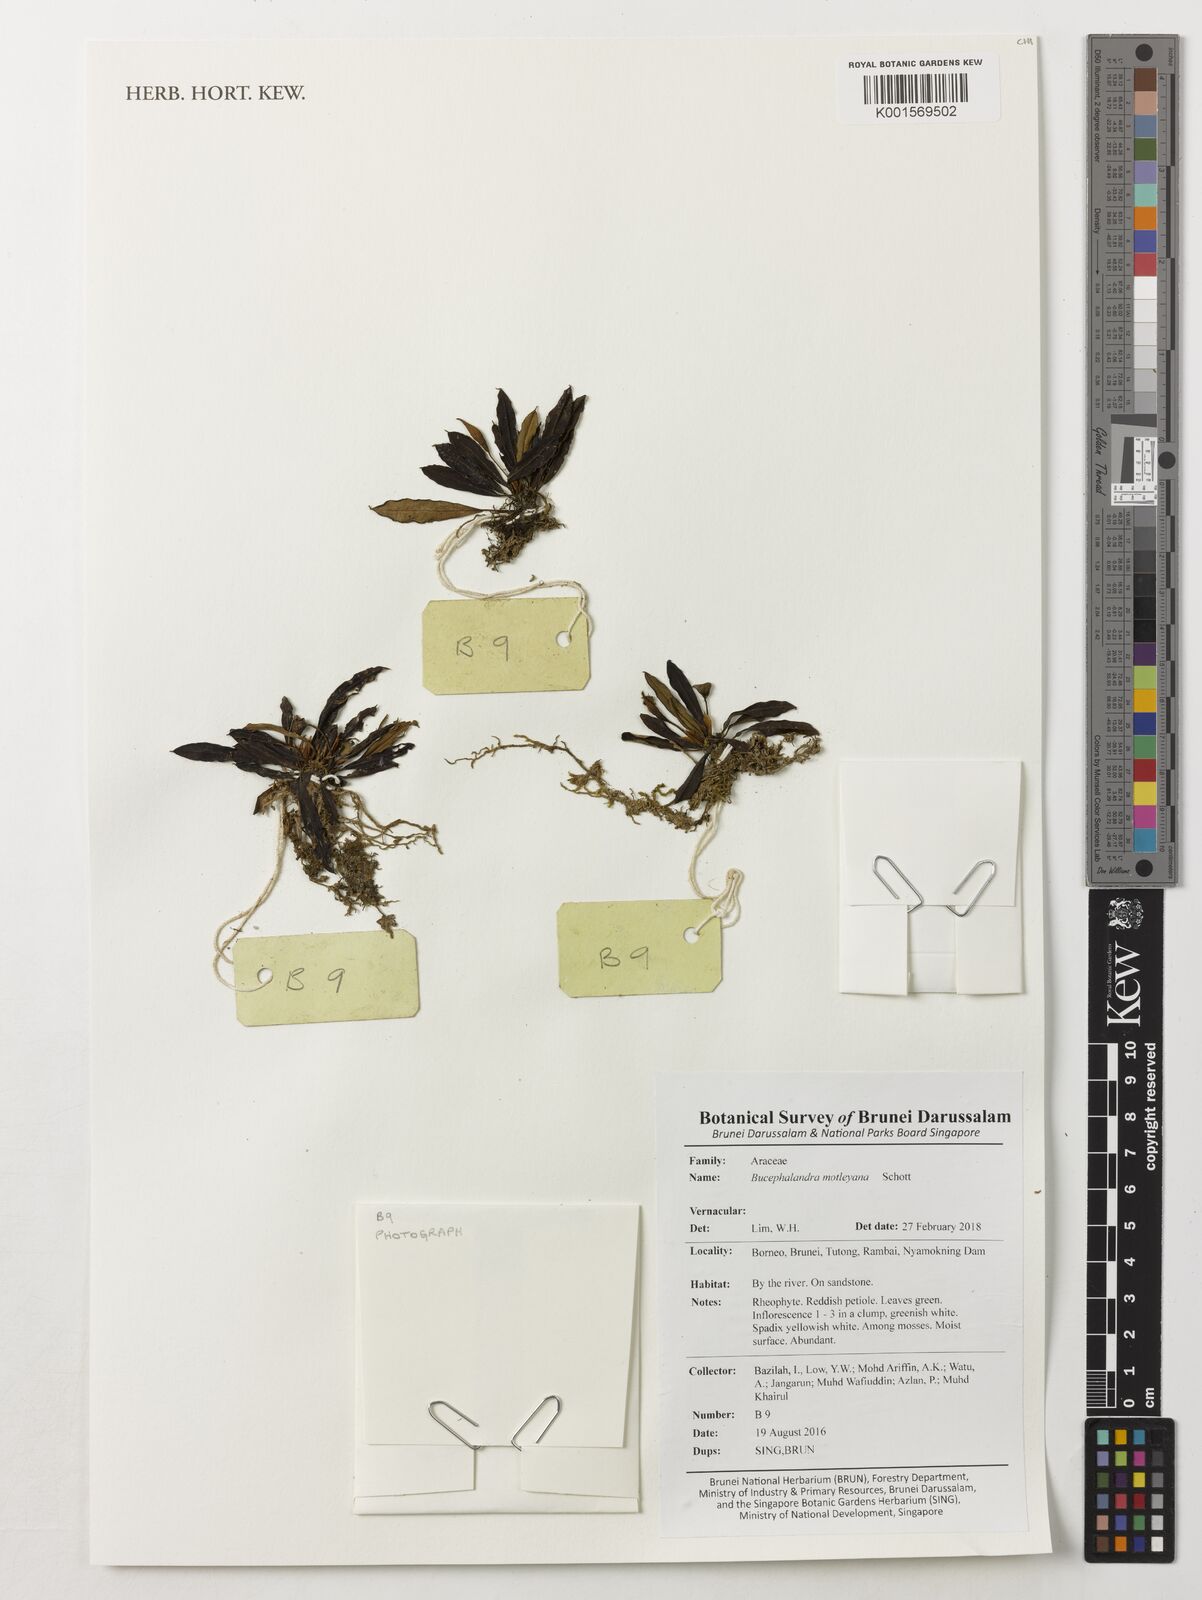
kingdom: Plantae
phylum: Tracheophyta
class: Liliopsida
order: Alismatales
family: Araceae
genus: Bucephalandra
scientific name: Bucephalandra motleyana
